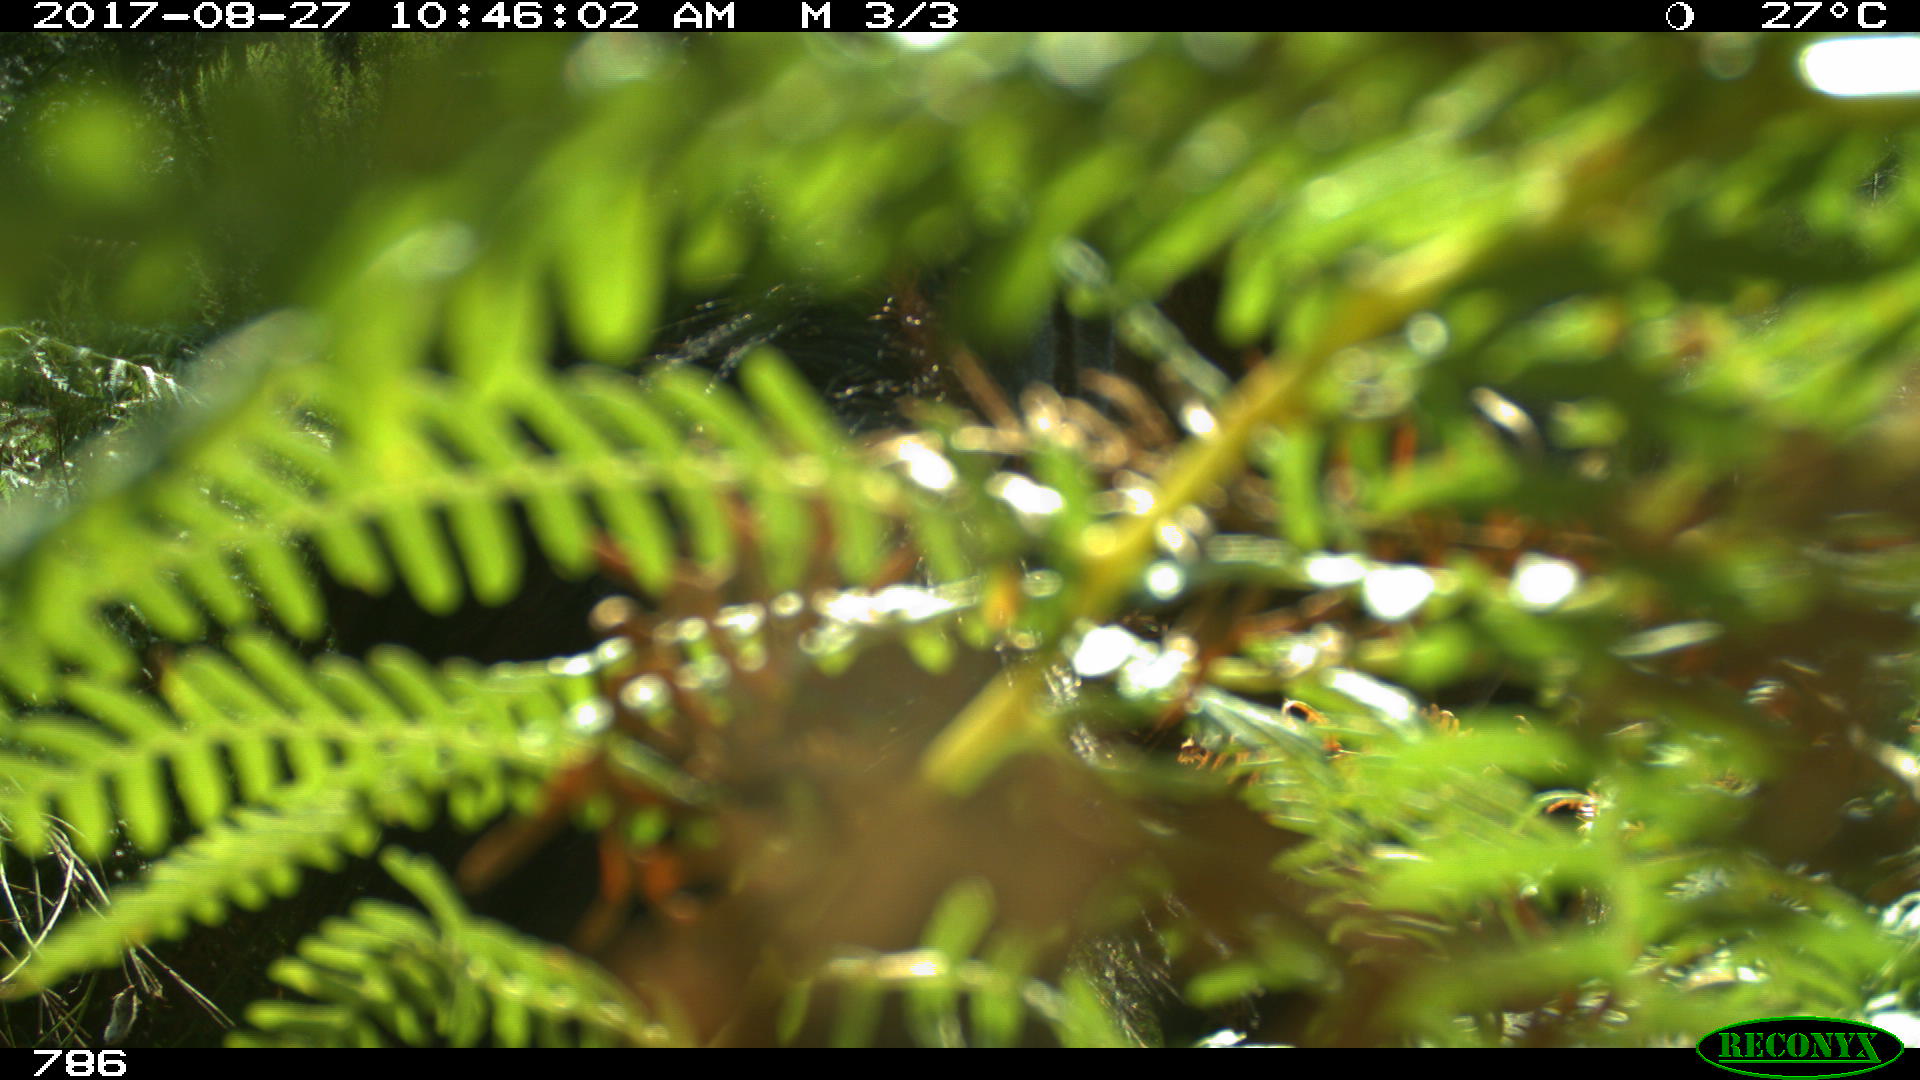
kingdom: Animalia
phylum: Chordata
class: Mammalia
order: Perissodactyla
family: Equidae
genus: Equus
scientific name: Equus caballus
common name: Horse
